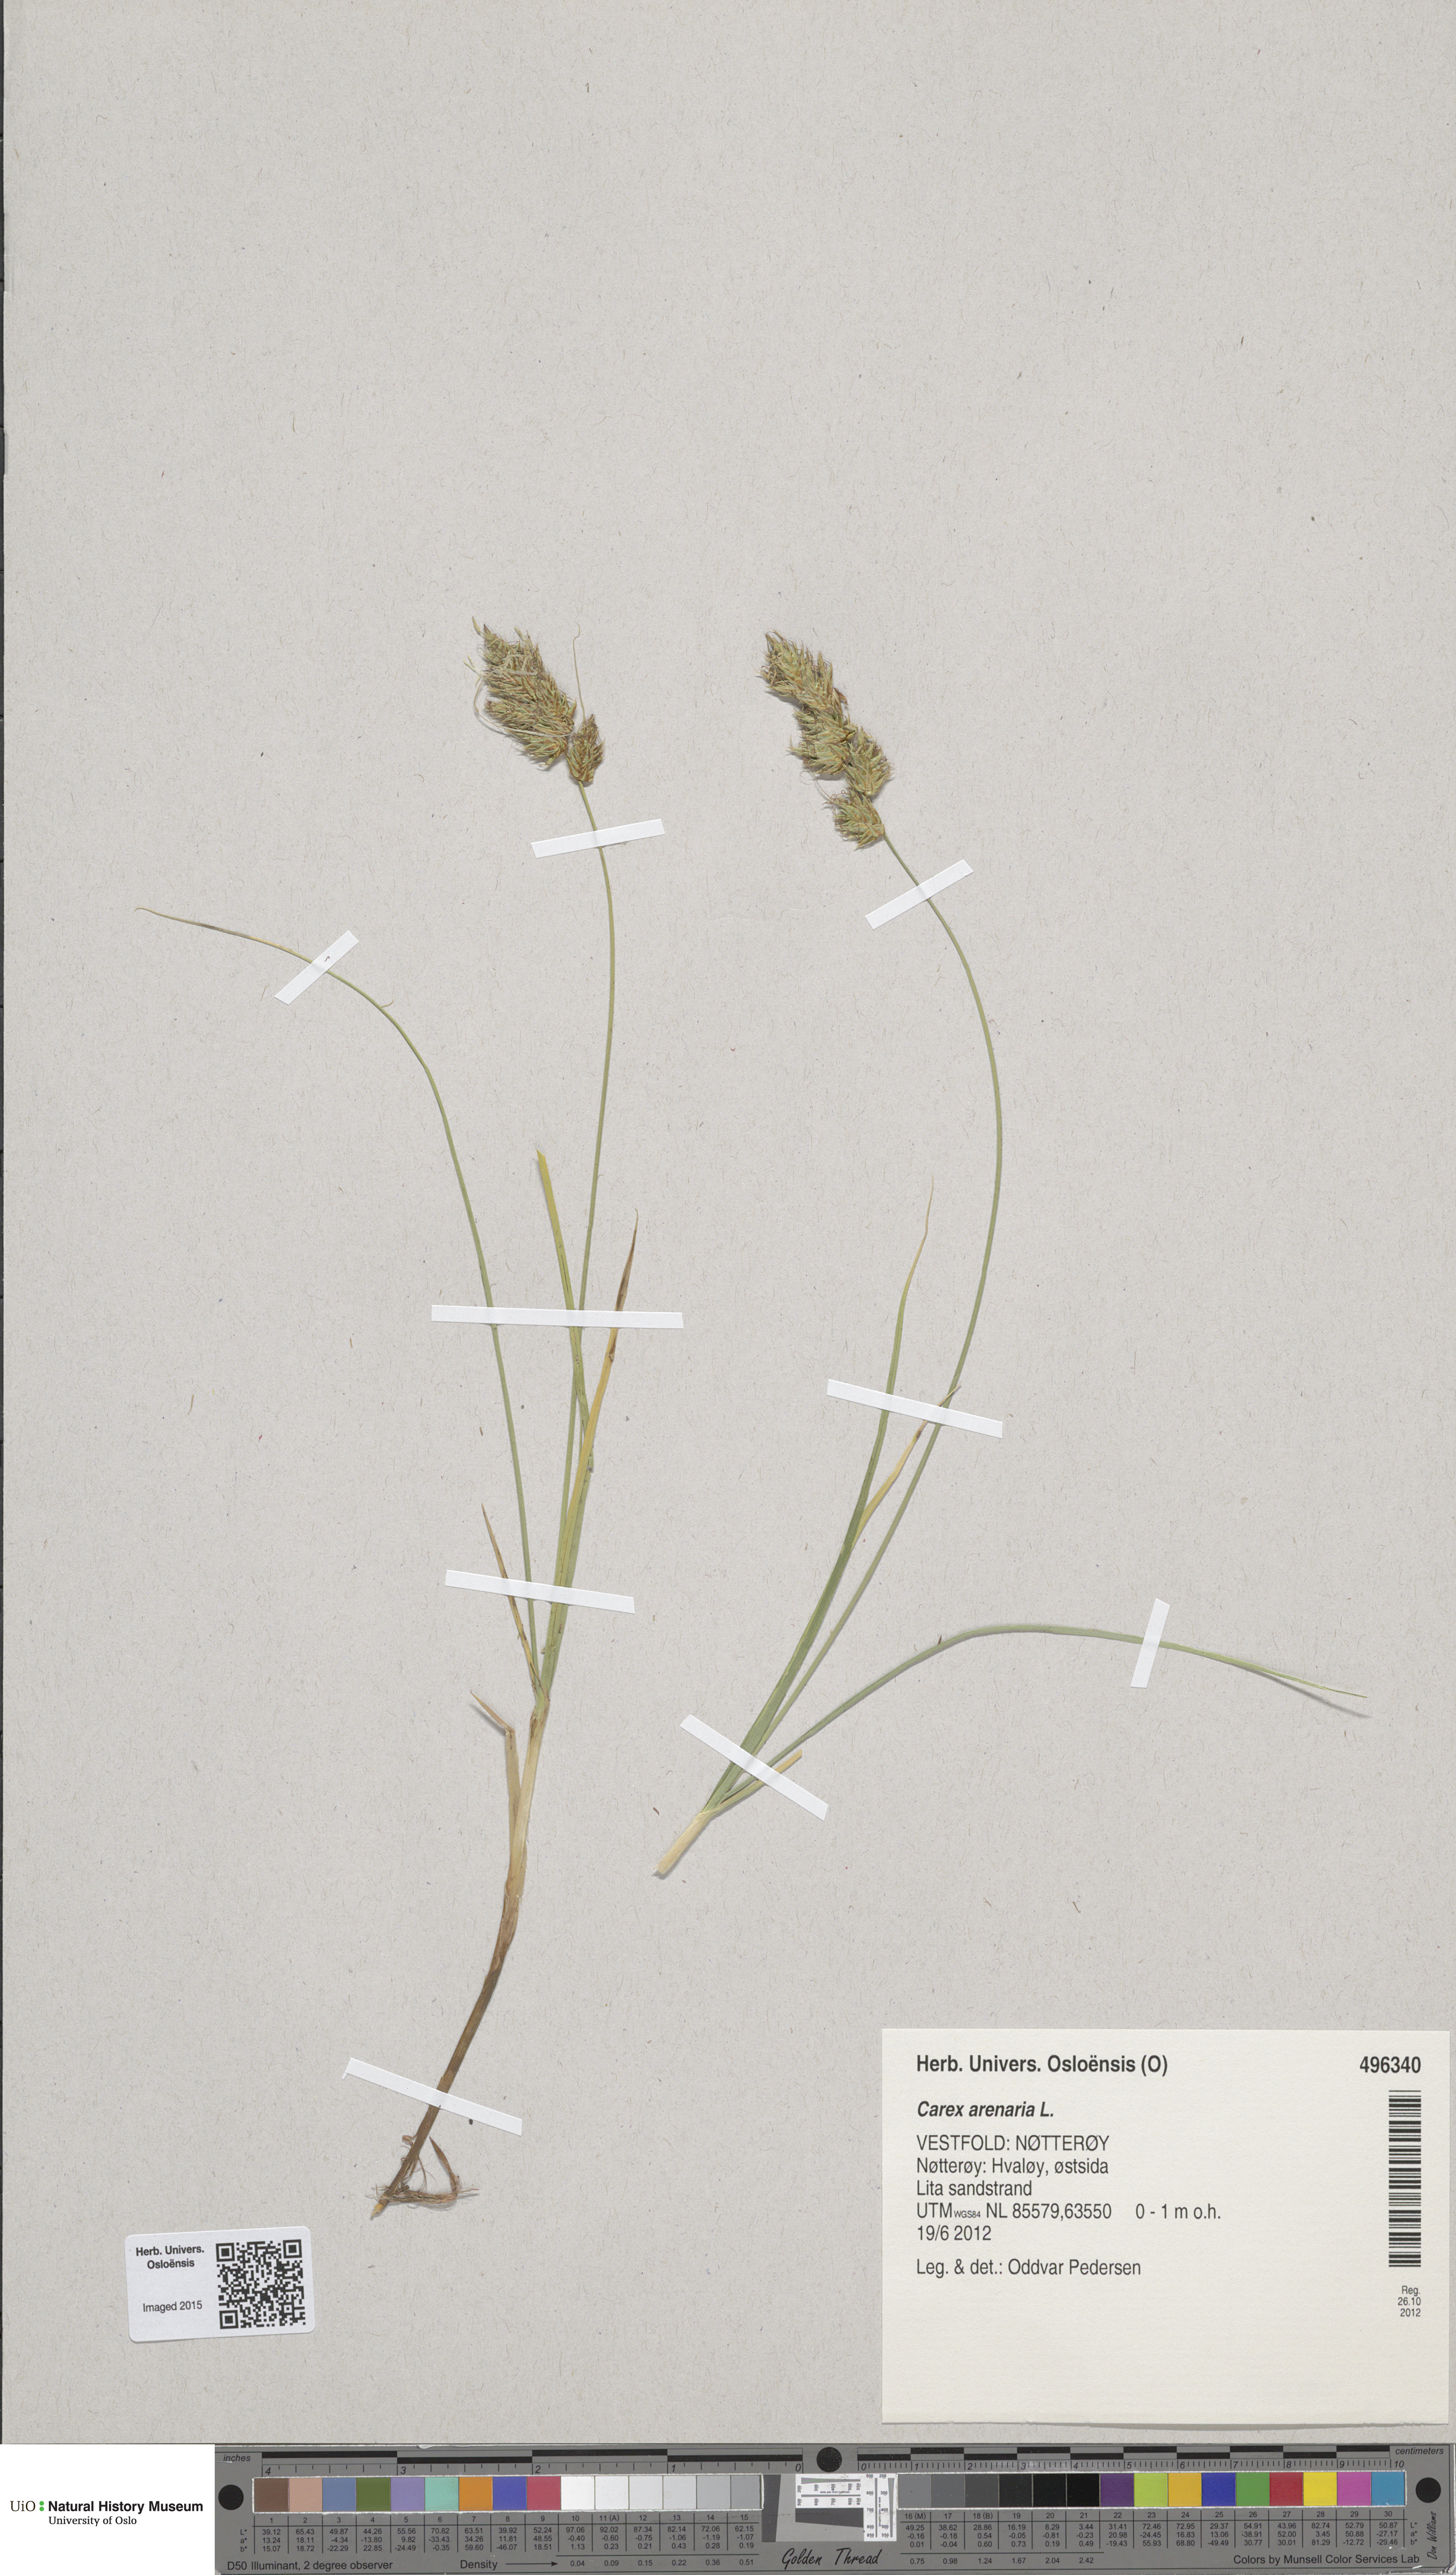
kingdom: Plantae
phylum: Tracheophyta
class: Liliopsida
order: Poales
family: Cyperaceae
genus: Carex
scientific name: Carex arenaria
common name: Sand sedge
